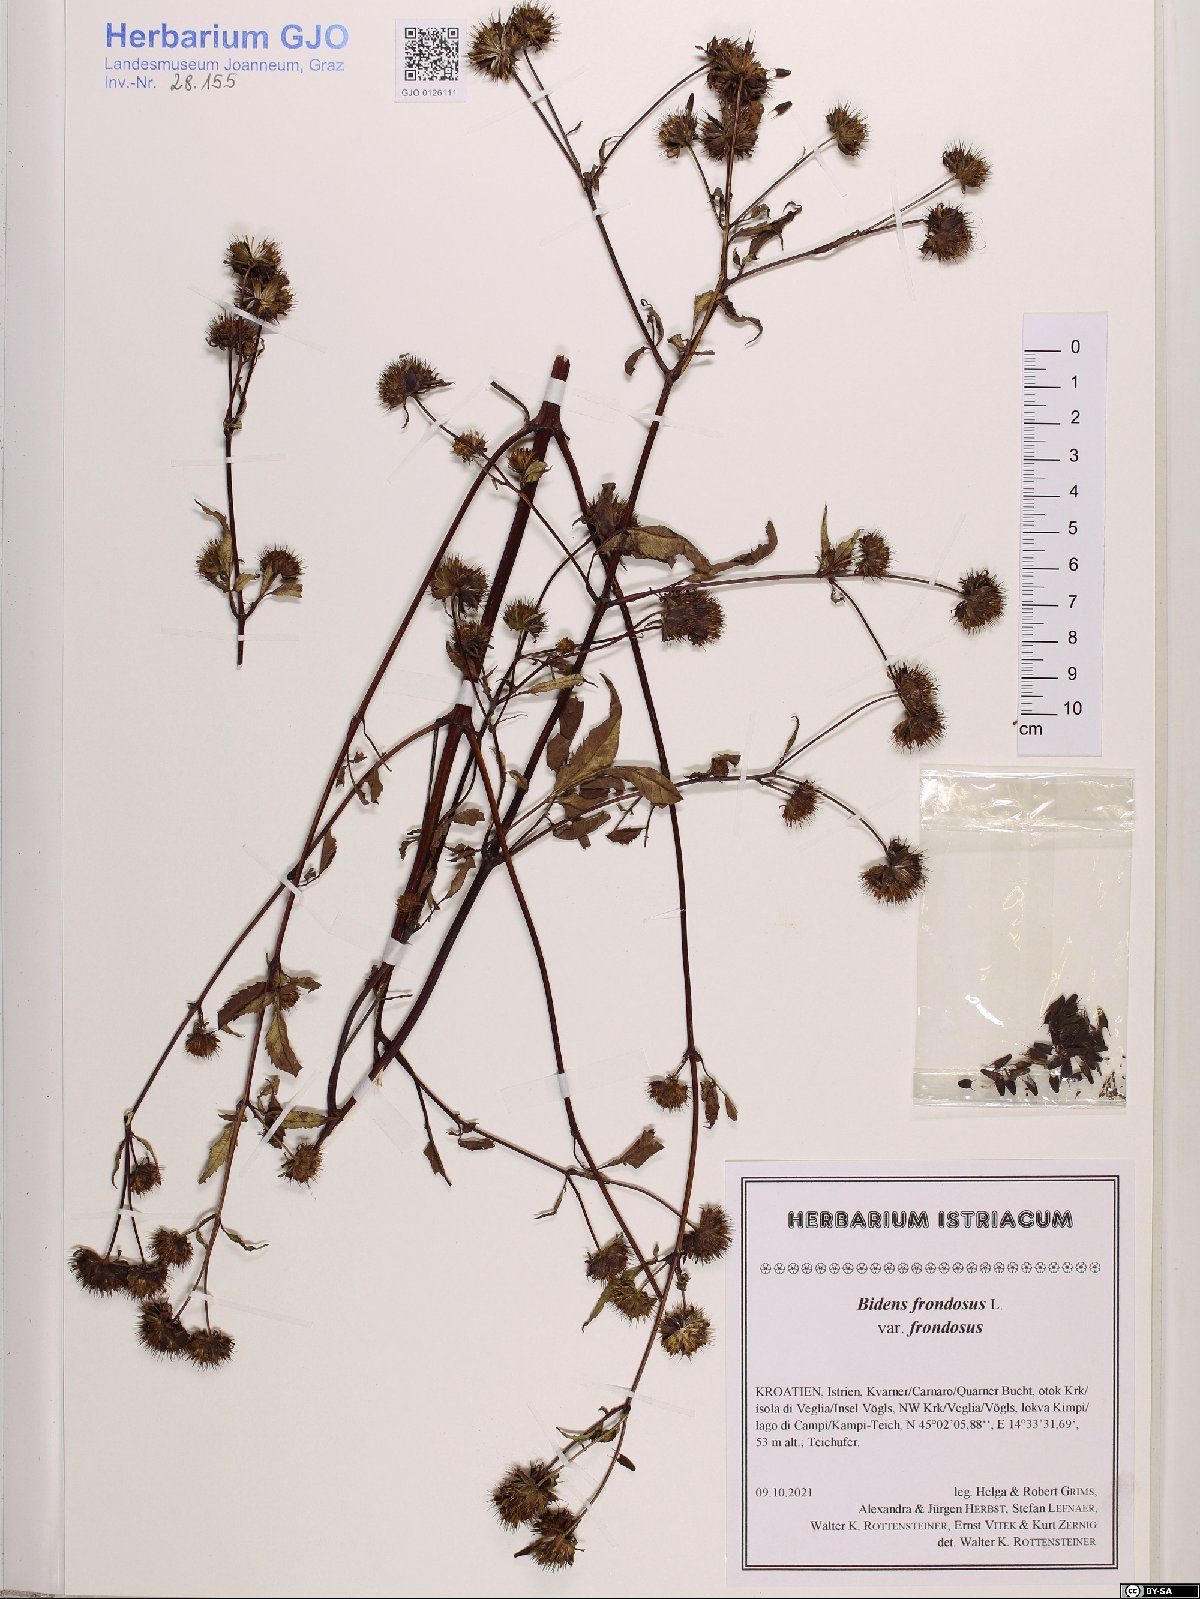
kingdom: Plantae
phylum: Tracheophyta
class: Magnoliopsida
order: Asterales
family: Asteraceae
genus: Bidens
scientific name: Bidens frondosa
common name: Beggarticks
